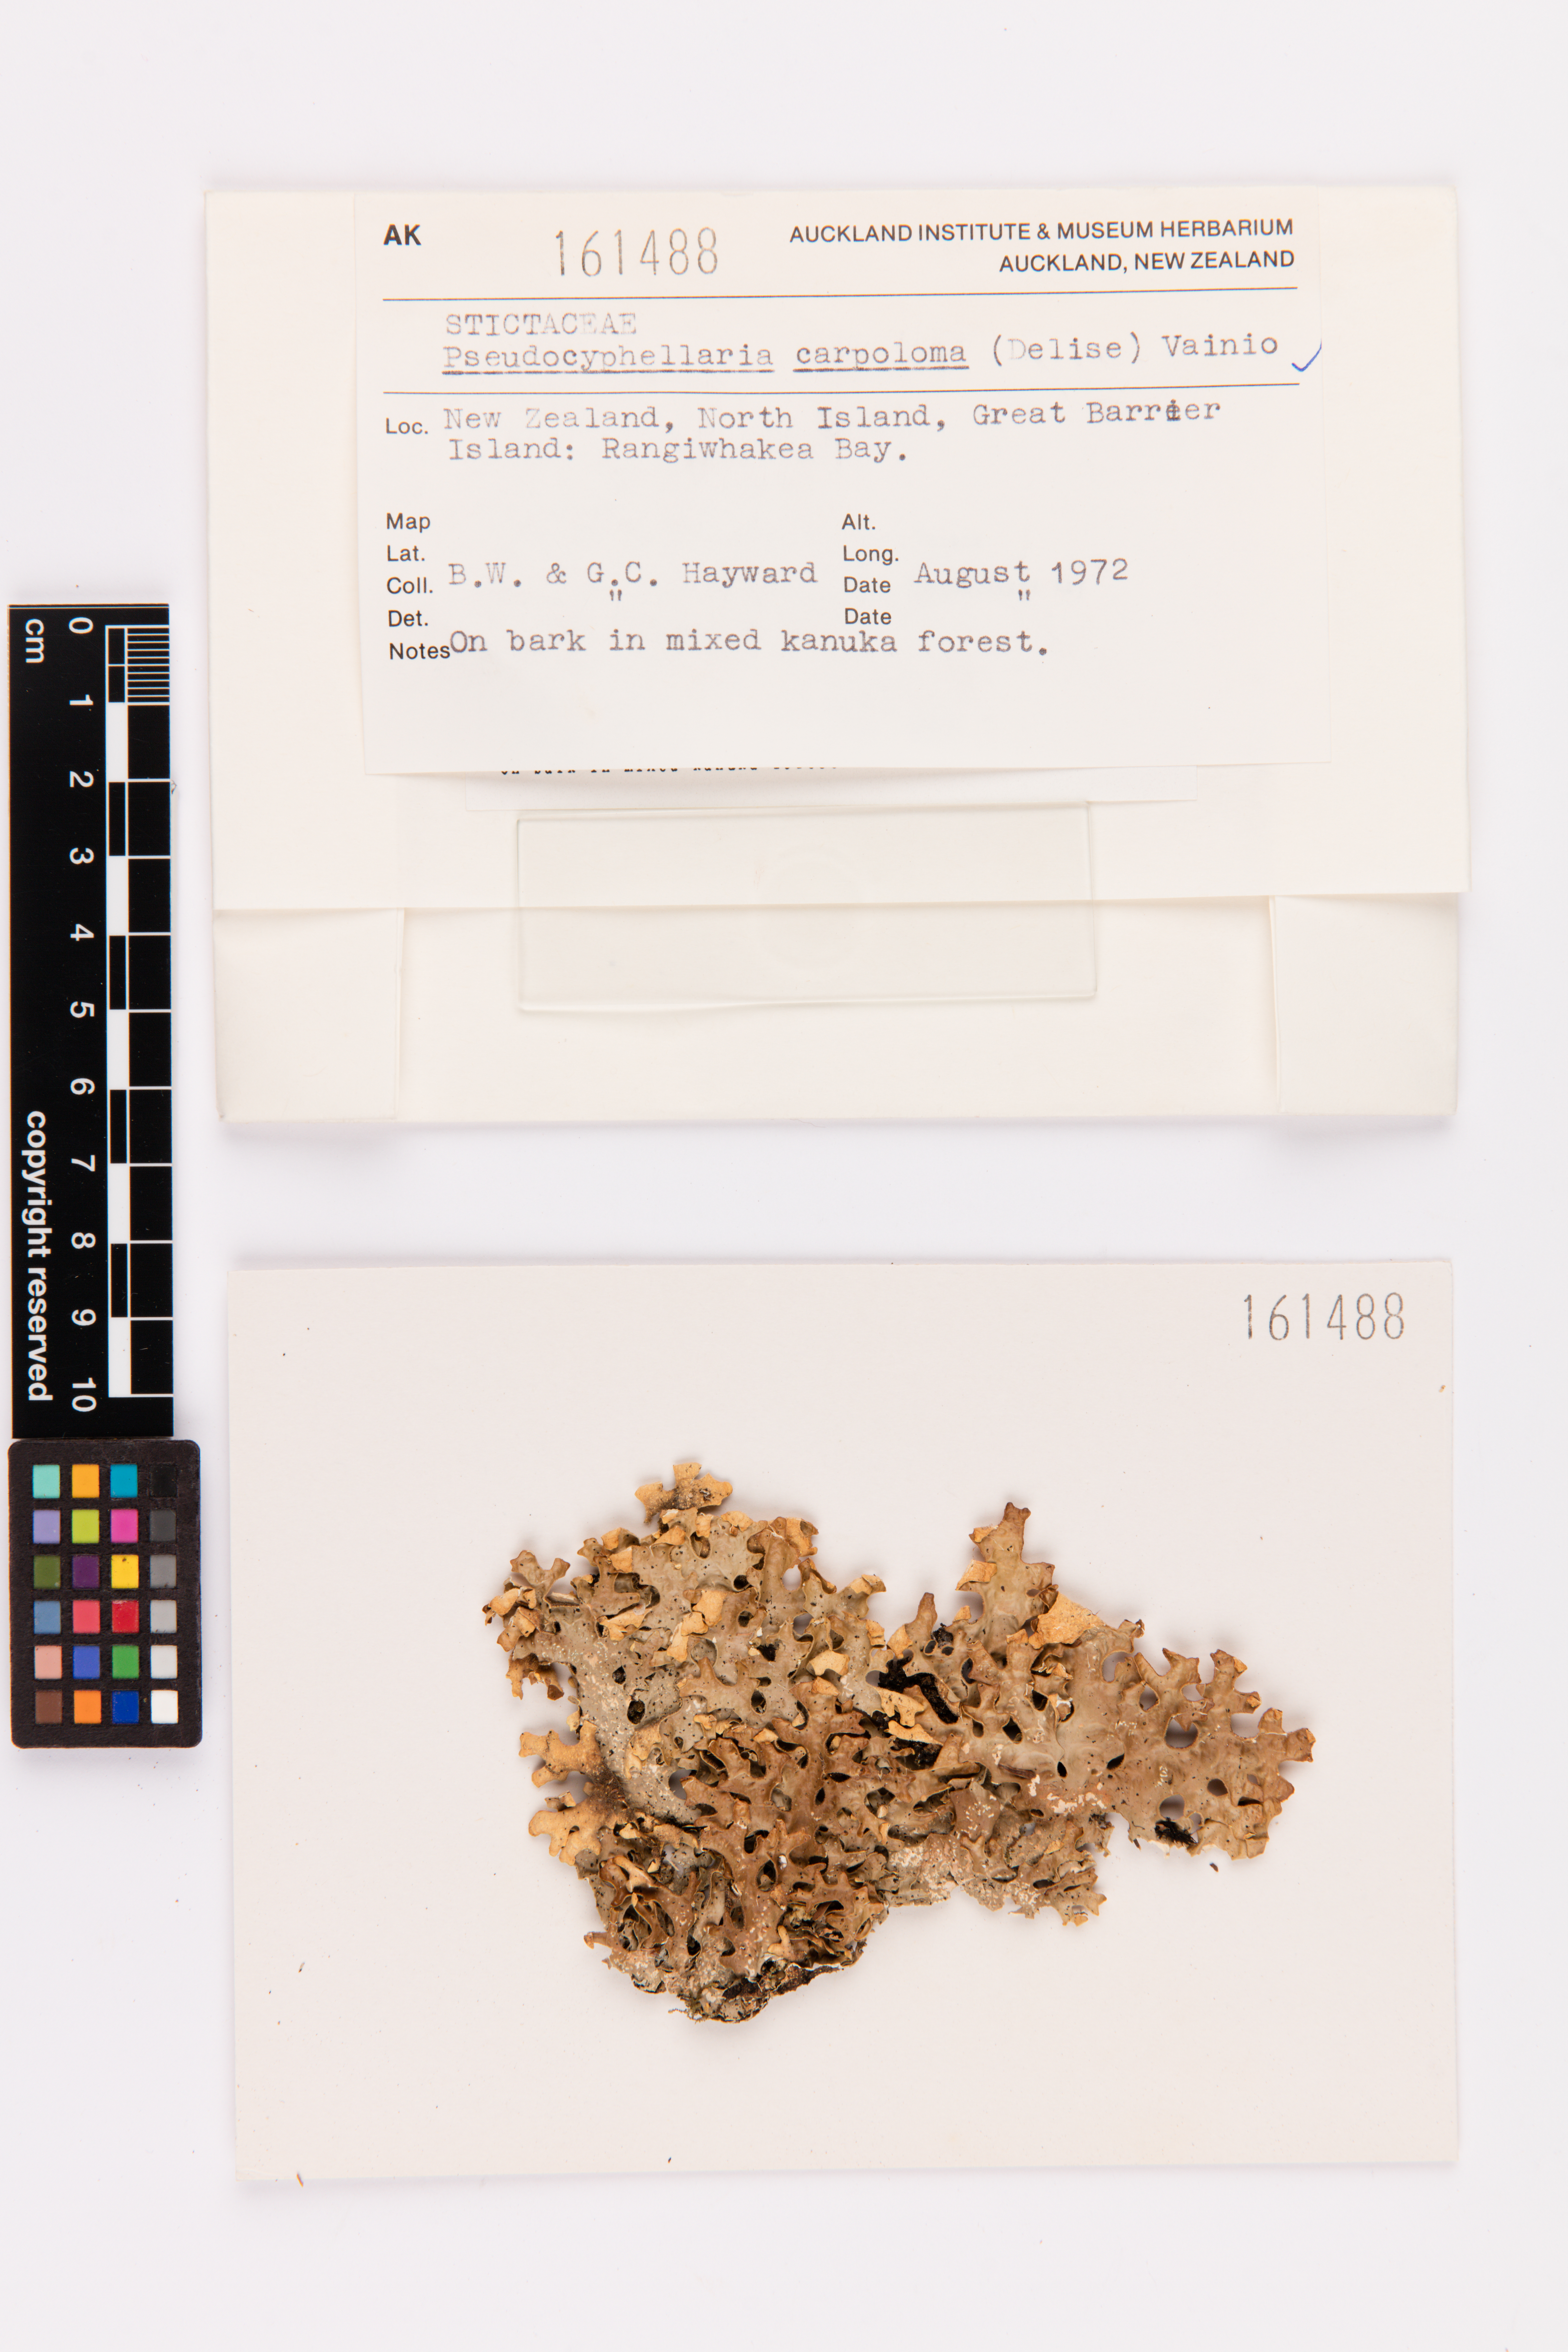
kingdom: Fungi
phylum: Ascomycota
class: Lecanoromycetes
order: Peltigerales
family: Lobariaceae
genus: Pseudocyphellaria
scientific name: Pseudocyphellaria carpoloma
